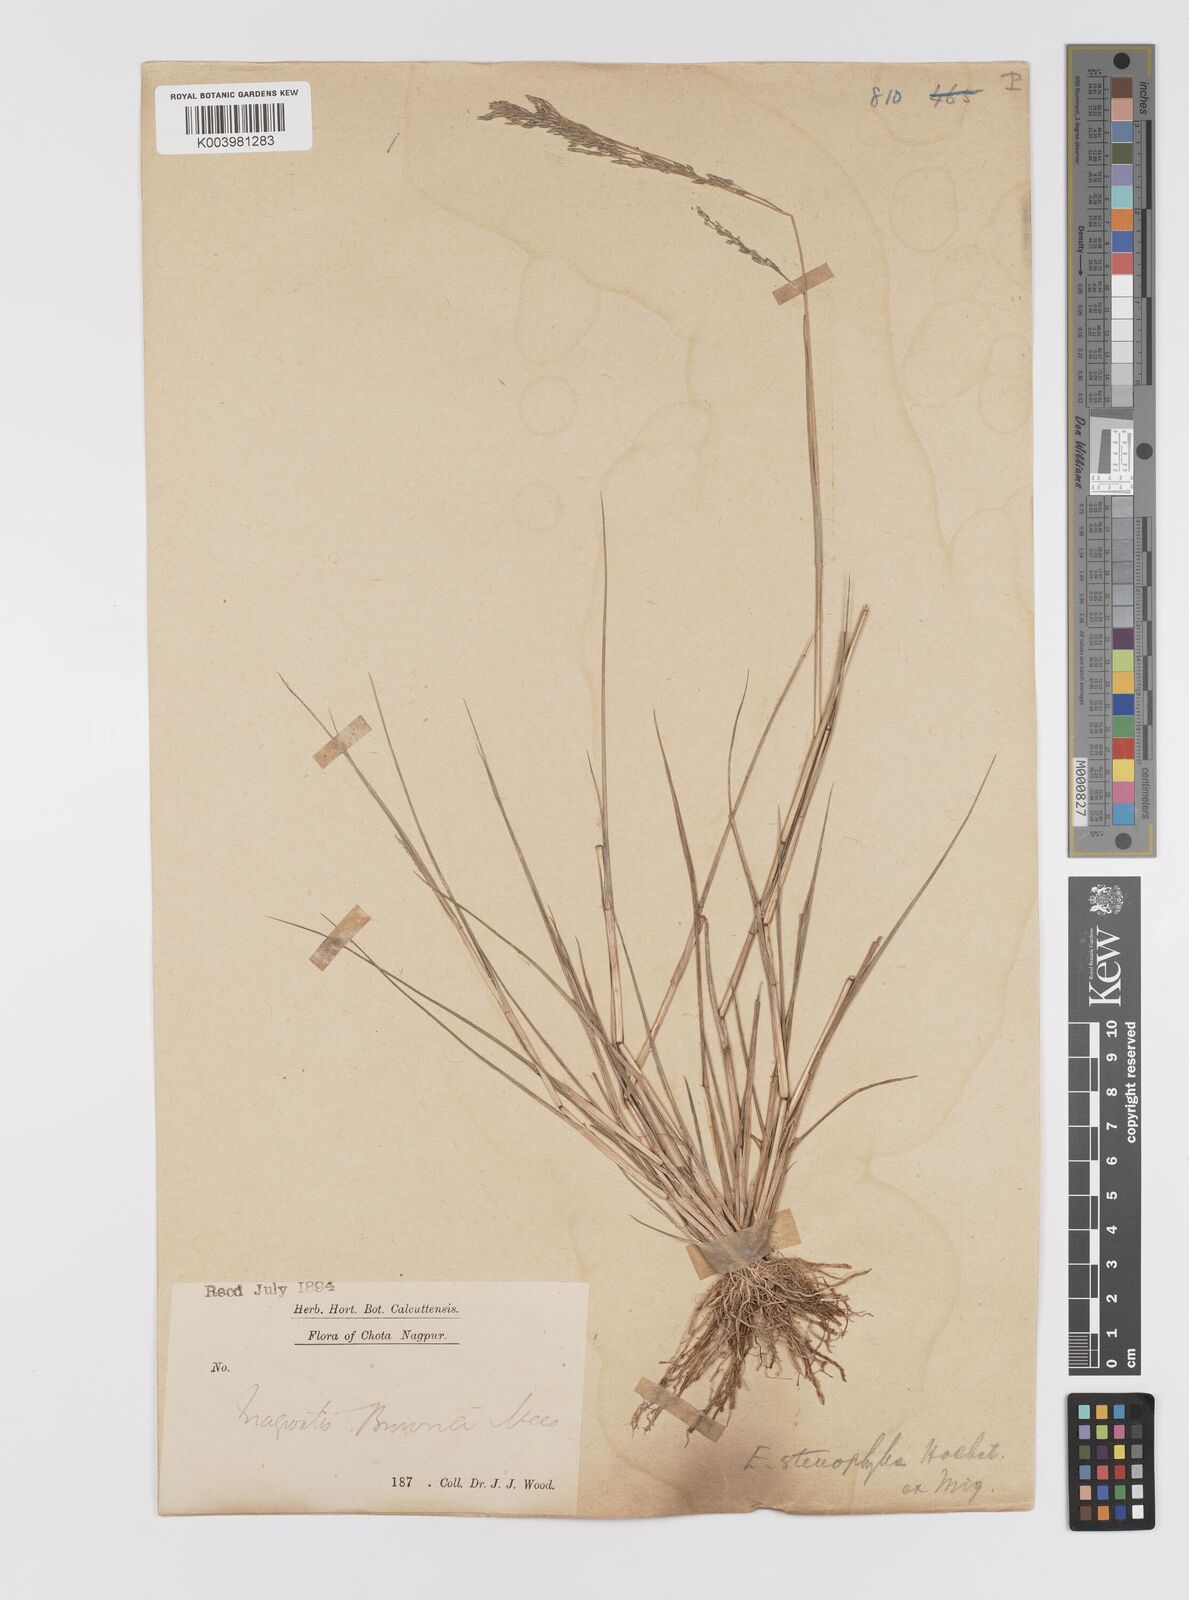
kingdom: Plantae
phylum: Tracheophyta
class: Liliopsida
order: Poales
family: Poaceae
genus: Eragrostis
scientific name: Eragrostis gangetica
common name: Slimflower lovegrass
